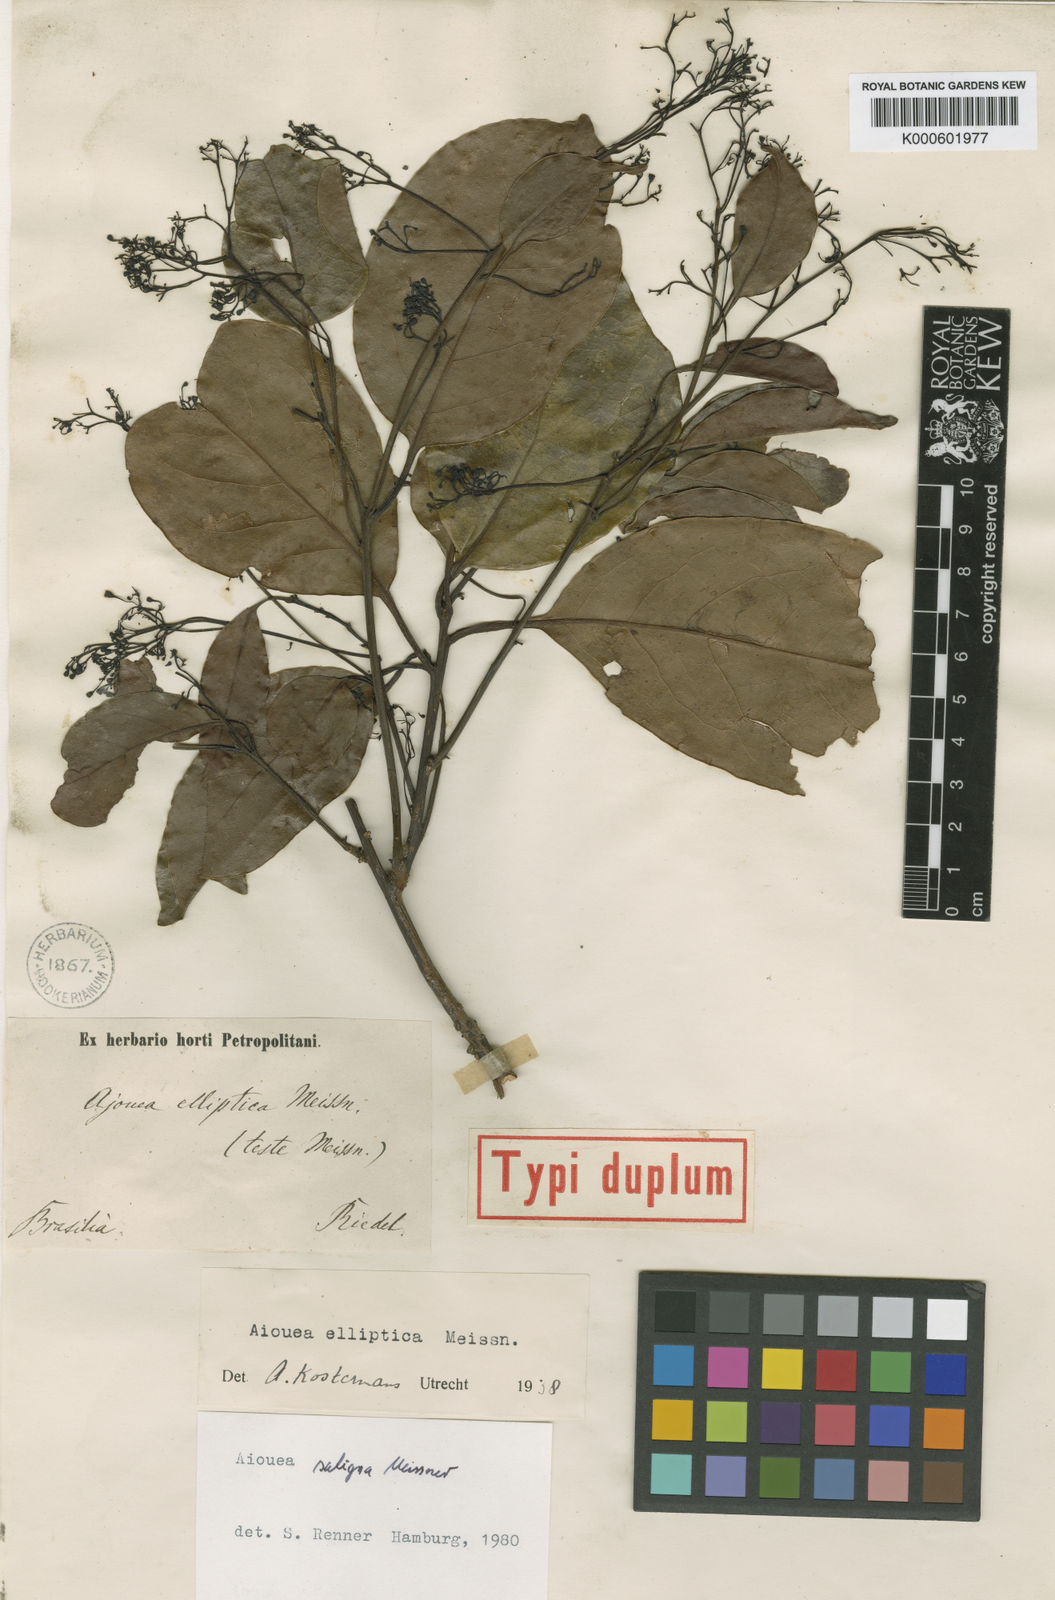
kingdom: Plantae
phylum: Tracheophyta
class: Magnoliopsida
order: Laurales
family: Lauraceae
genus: Aiouea
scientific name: Aiouea saligna
